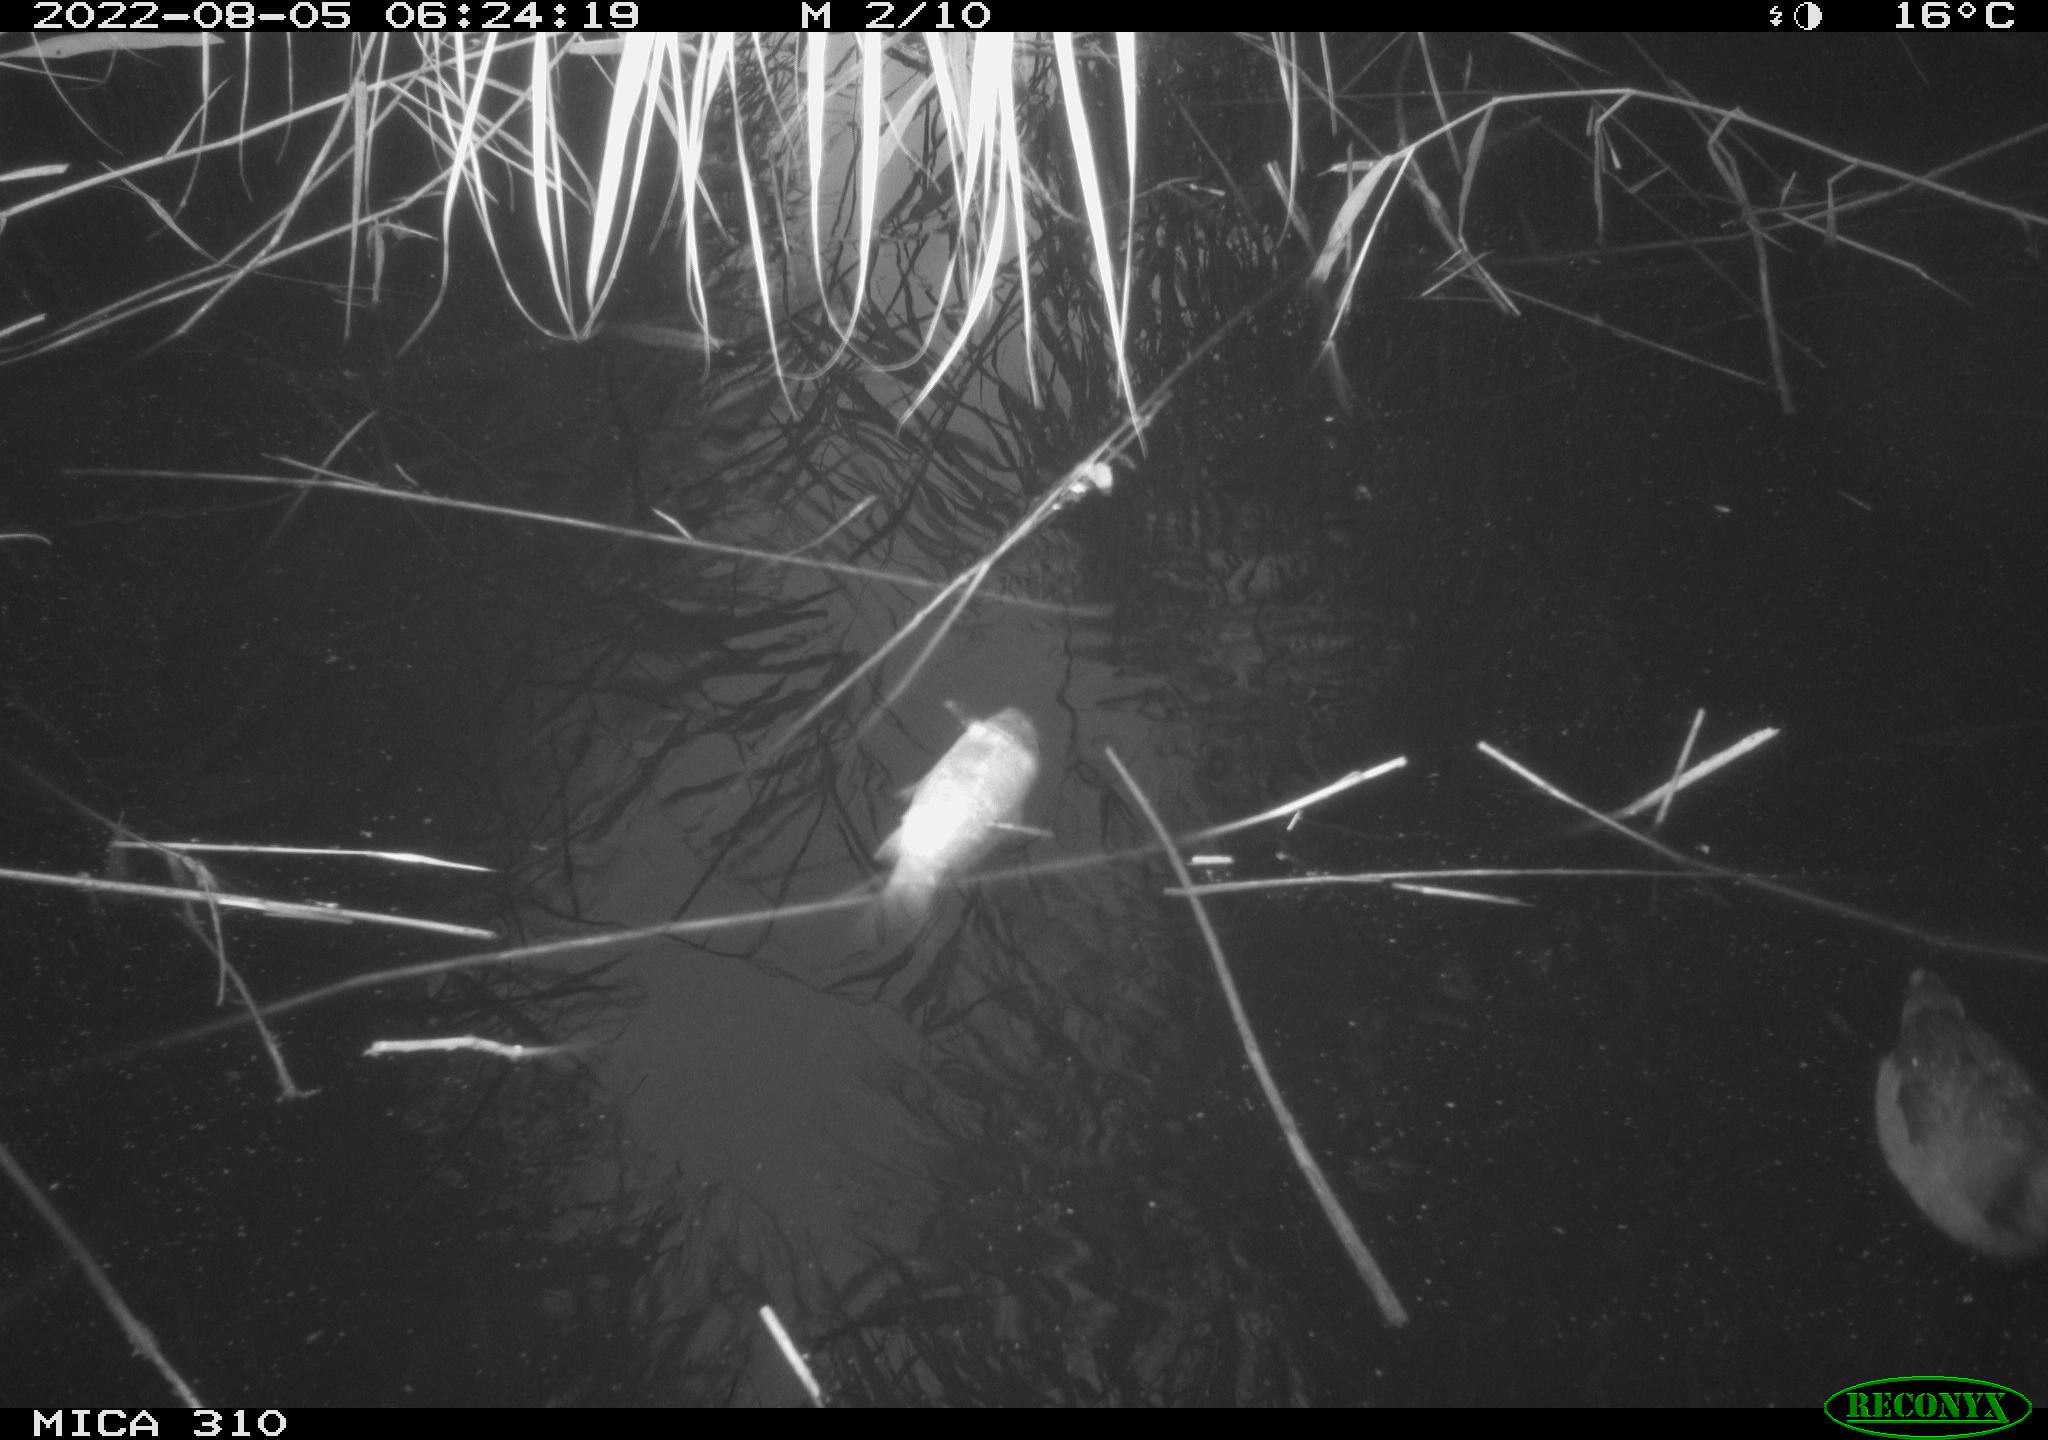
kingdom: Animalia
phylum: Chordata
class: Aves
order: Gruiformes
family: Rallidae
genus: Fulica
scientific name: Fulica atra
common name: Eurasian coot
